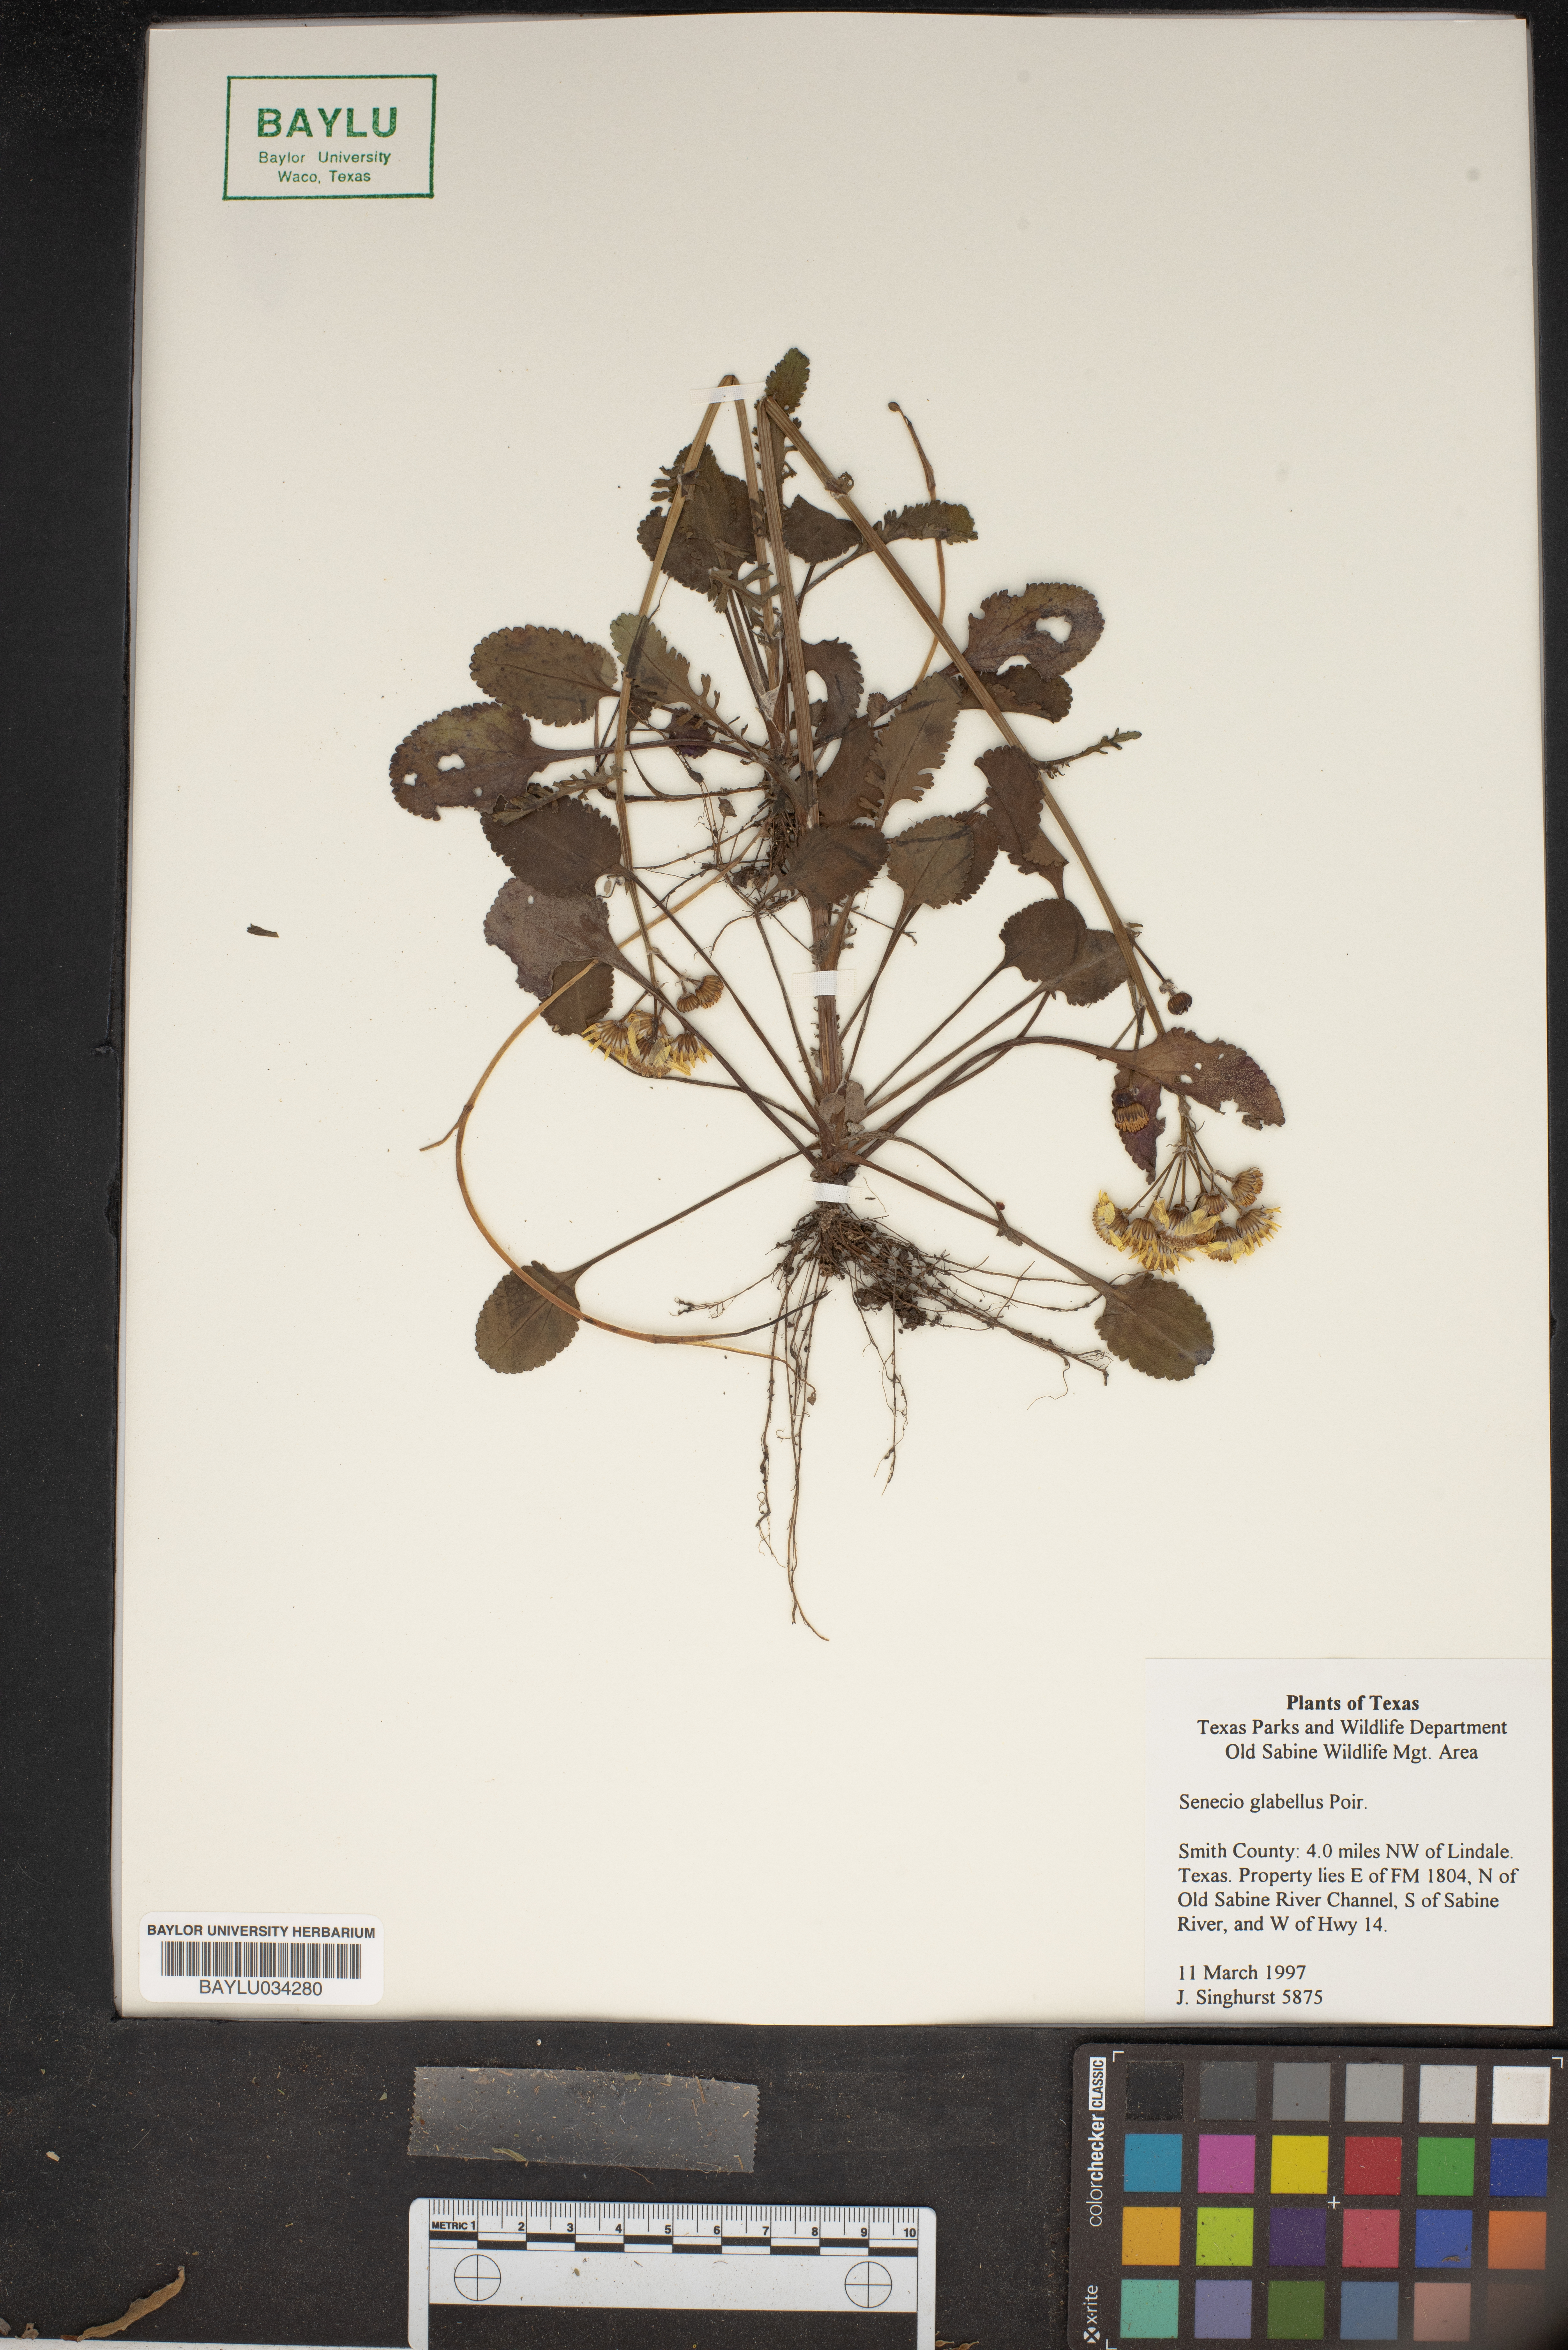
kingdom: Plantae
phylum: Tracheophyta
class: Magnoliopsida
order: Asterales
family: Asteraceae
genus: Tephroseris
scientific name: Tephroseris praticola
